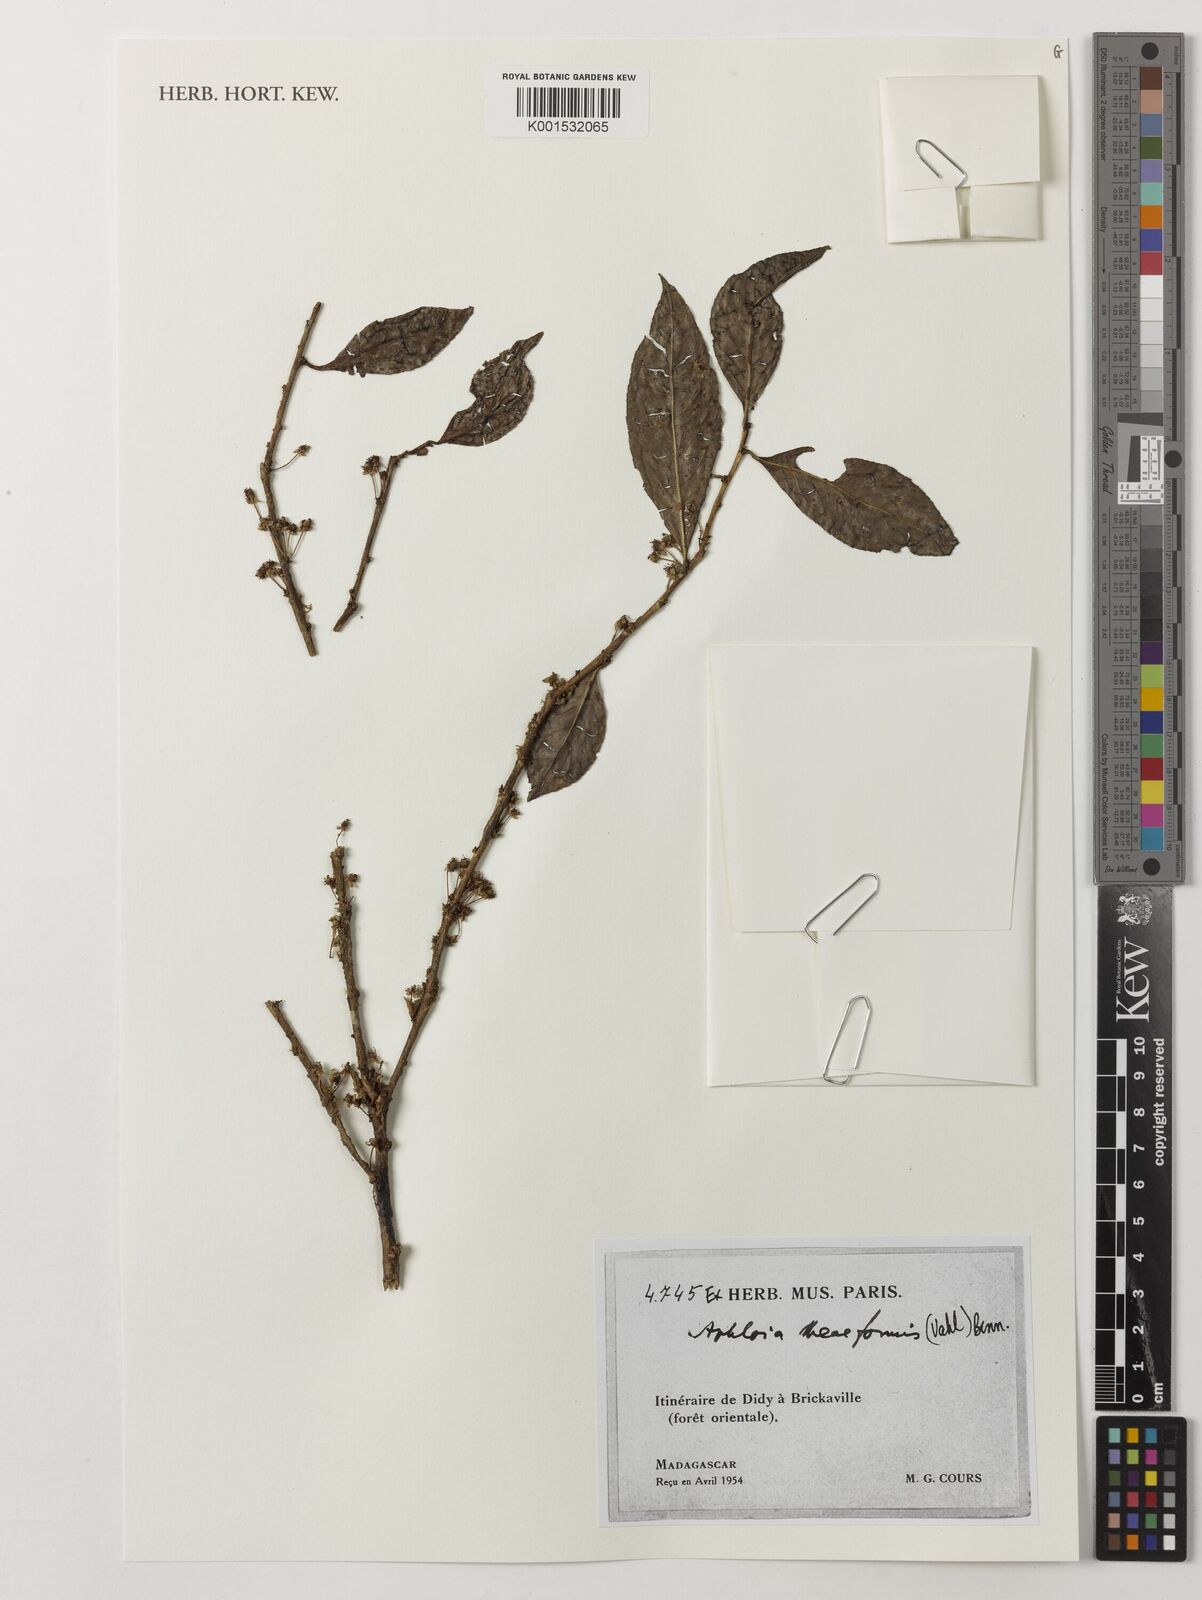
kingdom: Plantae
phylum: Tracheophyta
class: Magnoliopsida
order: Crossosomatales
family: Aphloiaceae
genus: Aphloia
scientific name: Aphloia theiformis
